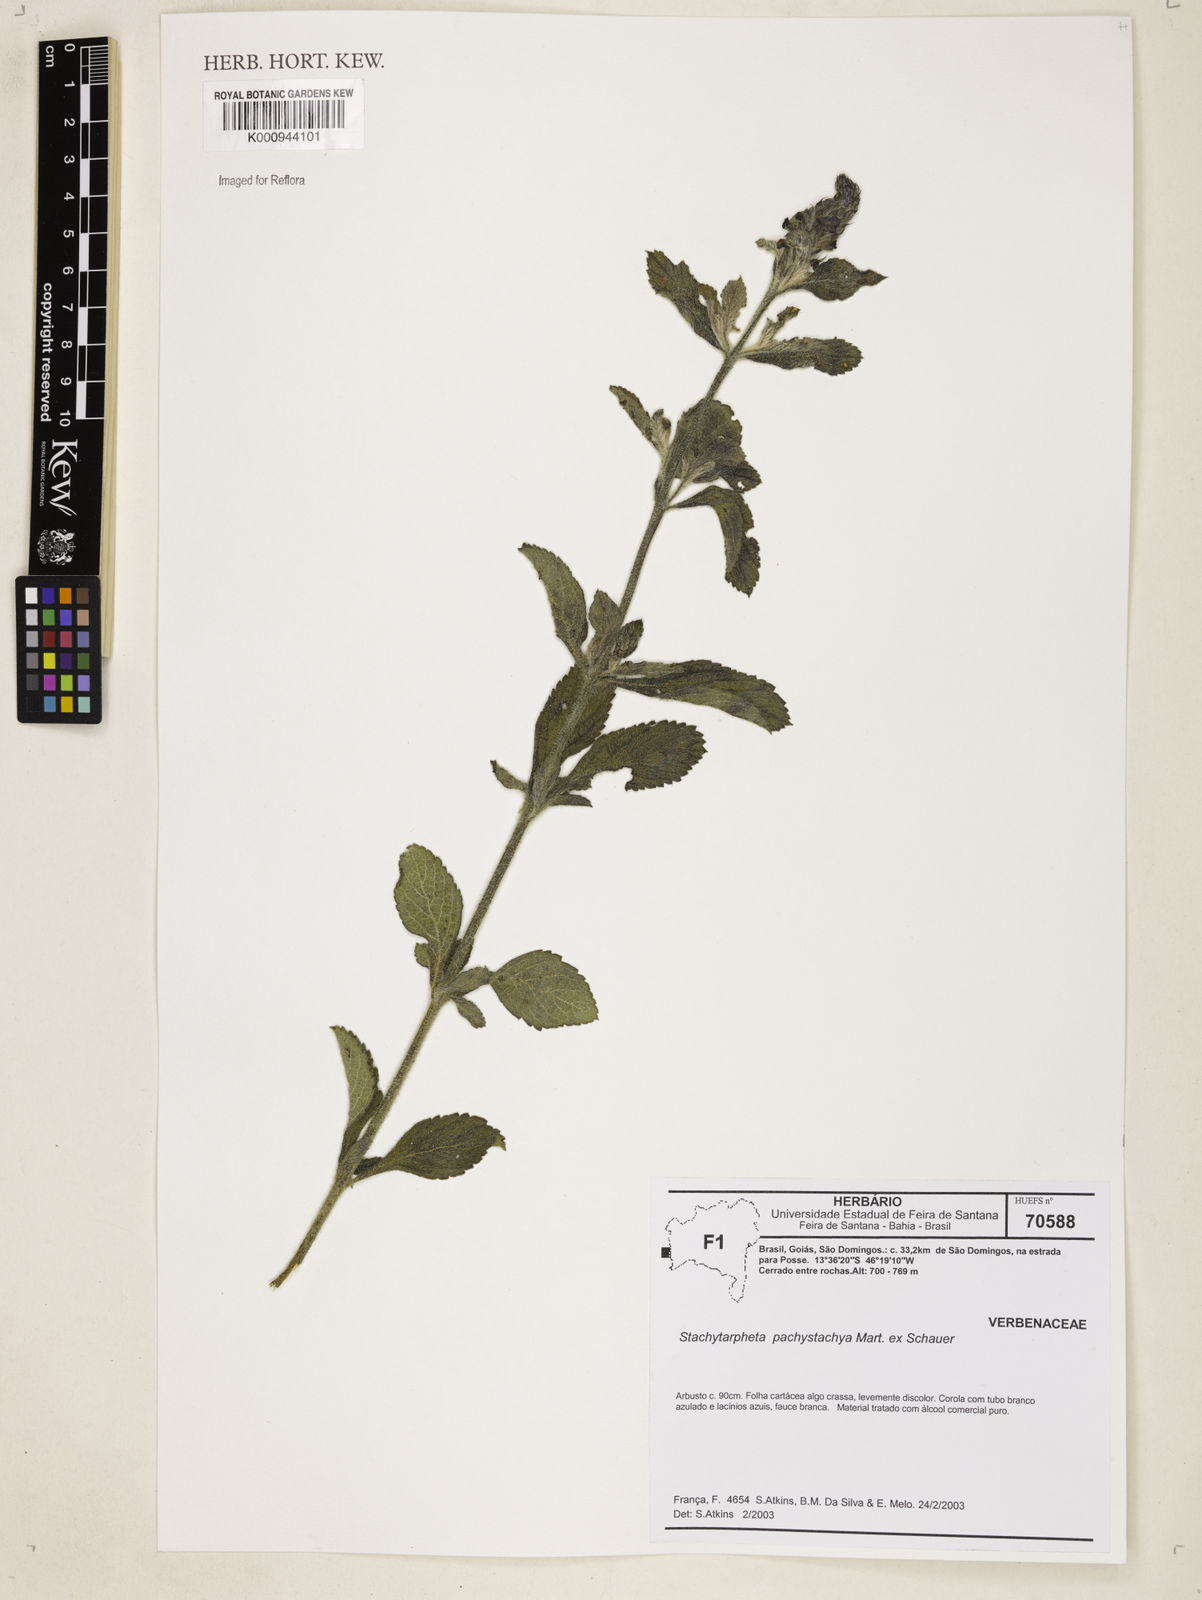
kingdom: Plantae
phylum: Tracheophyta
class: Magnoliopsida
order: Lamiales
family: Verbenaceae
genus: Stachytarpheta
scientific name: Stachytarpheta pachystachya
